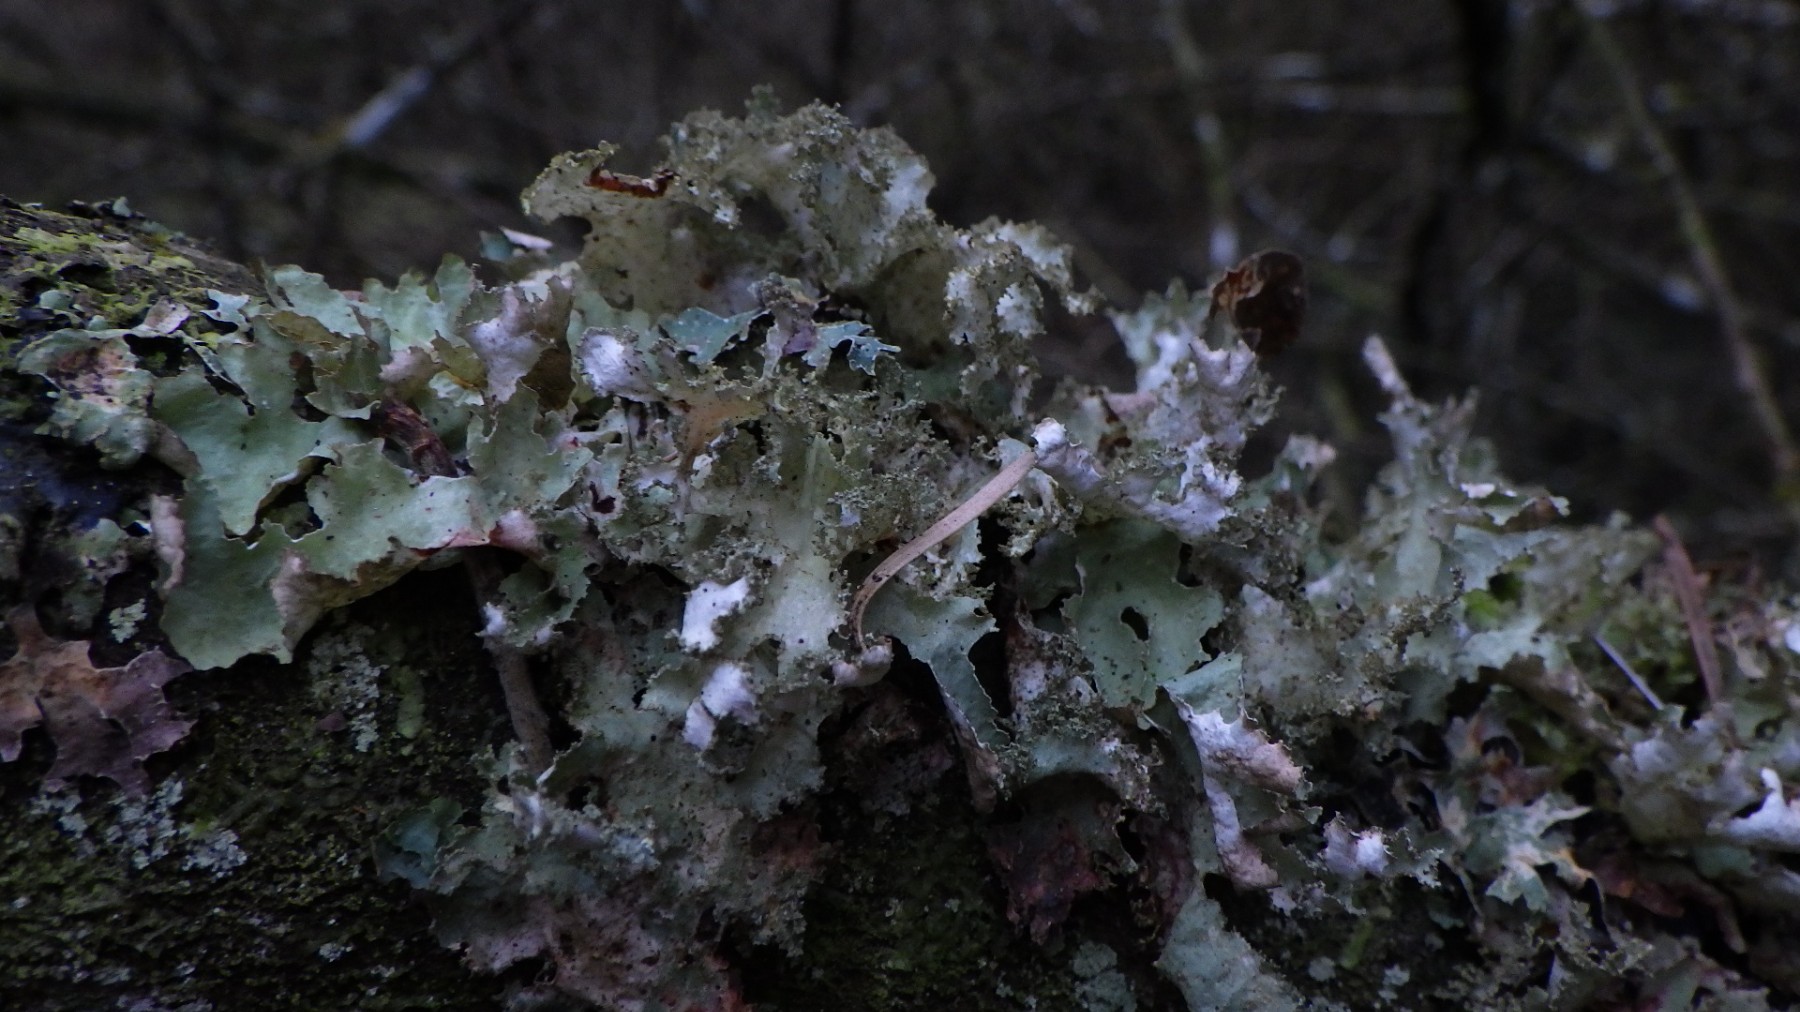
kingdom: Fungi
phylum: Ascomycota
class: Lecanoromycetes
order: Lecanorales
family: Parmeliaceae
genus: Platismatia
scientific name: Platismatia glauca
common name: blågrå papirlav
